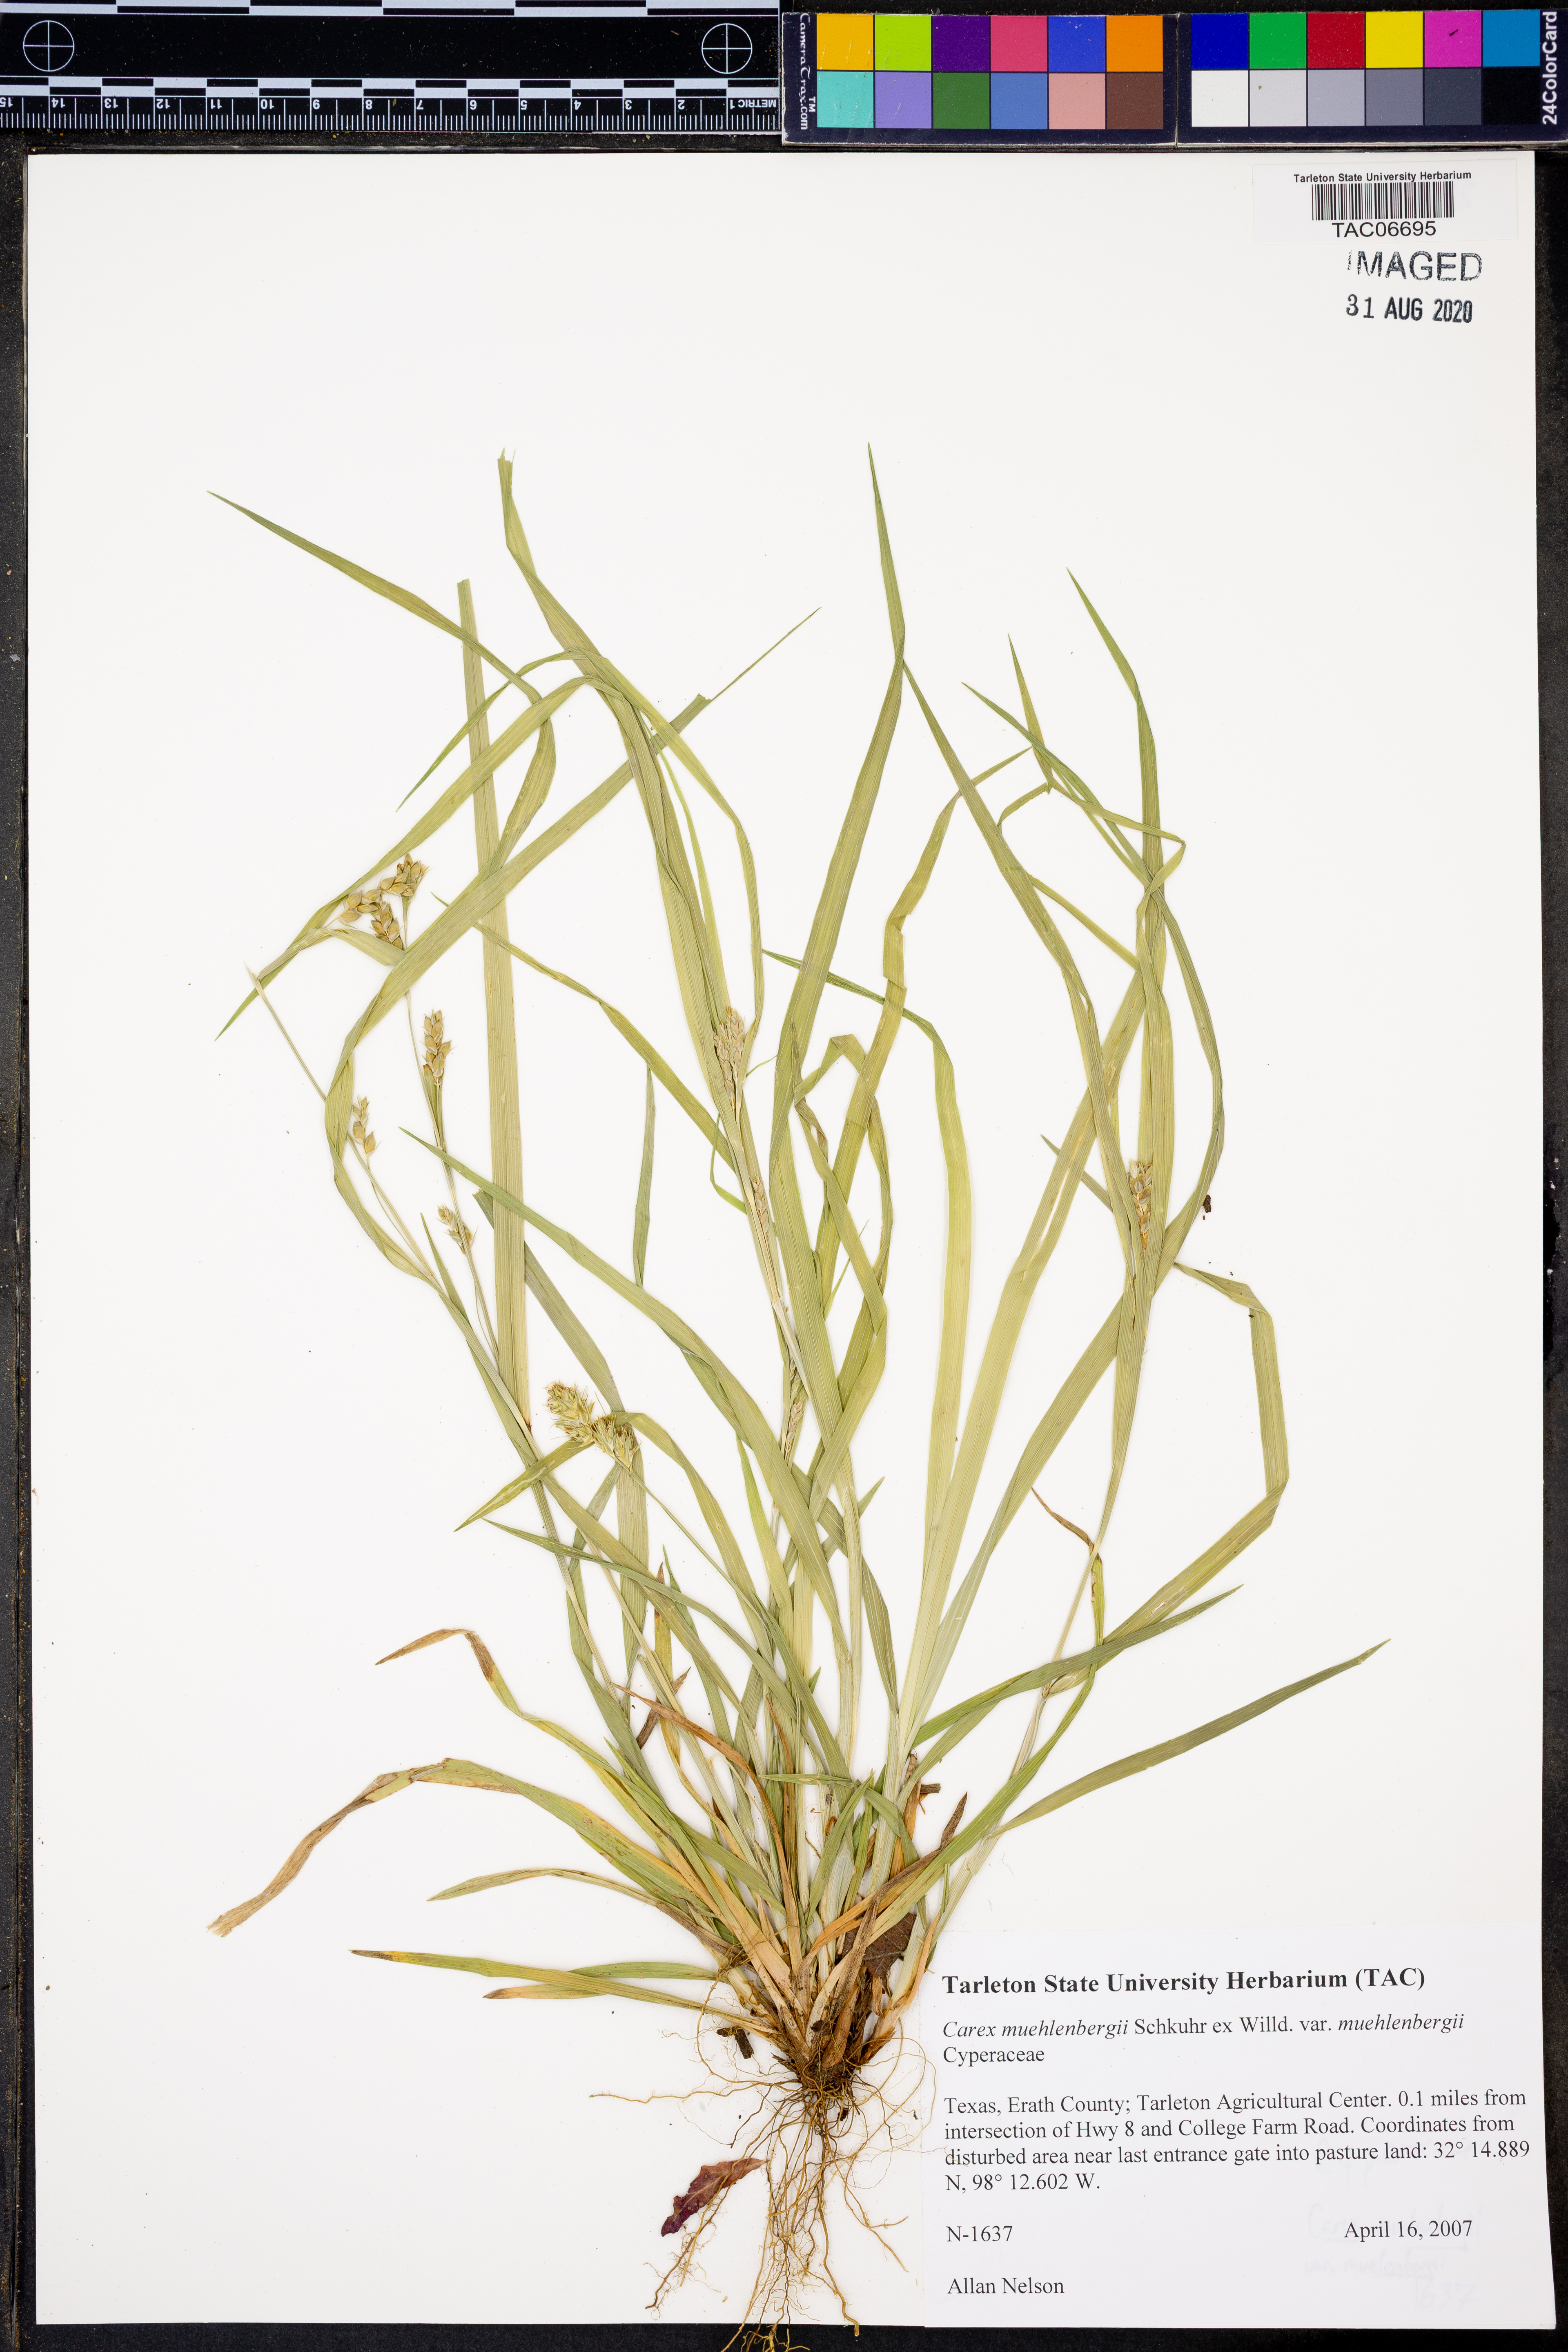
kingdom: Plantae
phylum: Tracheophyta
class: Liliopsida
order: Poales
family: Cyperaceae
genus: Carex
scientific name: Carex muehlenbergii
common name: Muhlenberg's bracted sedge
